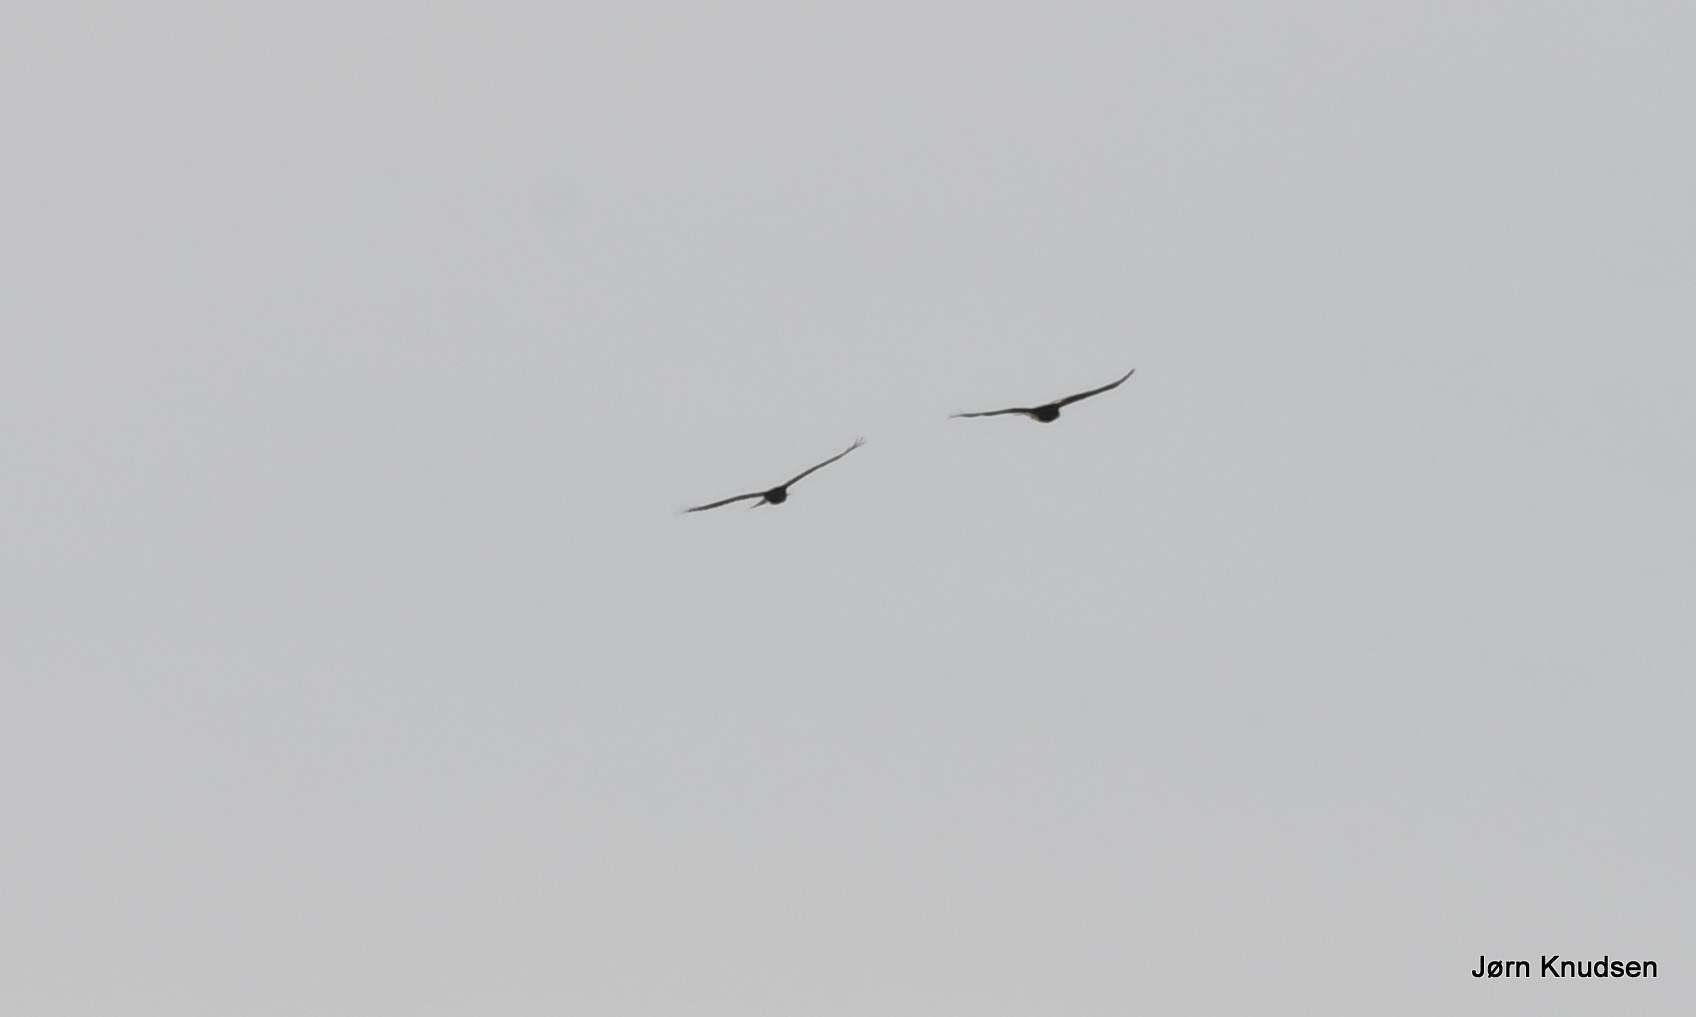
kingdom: Animalia
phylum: Chordata
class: Aves
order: Accipitriformes
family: Accipitridae
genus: Buteo
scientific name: Buteo buteo
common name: Musvåge
